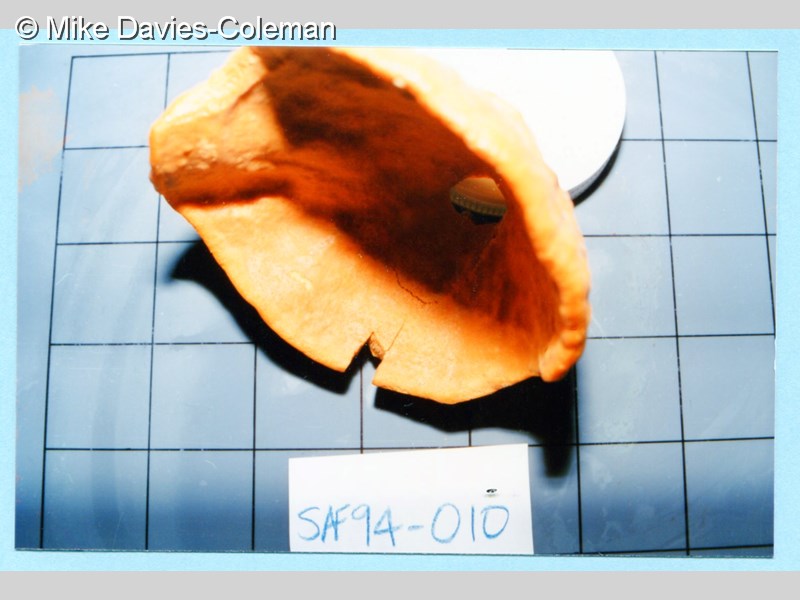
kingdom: Animalia
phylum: Porifera
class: Demospongiae
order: Axinellida
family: Axinellidae
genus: Axinella
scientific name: Axinella
